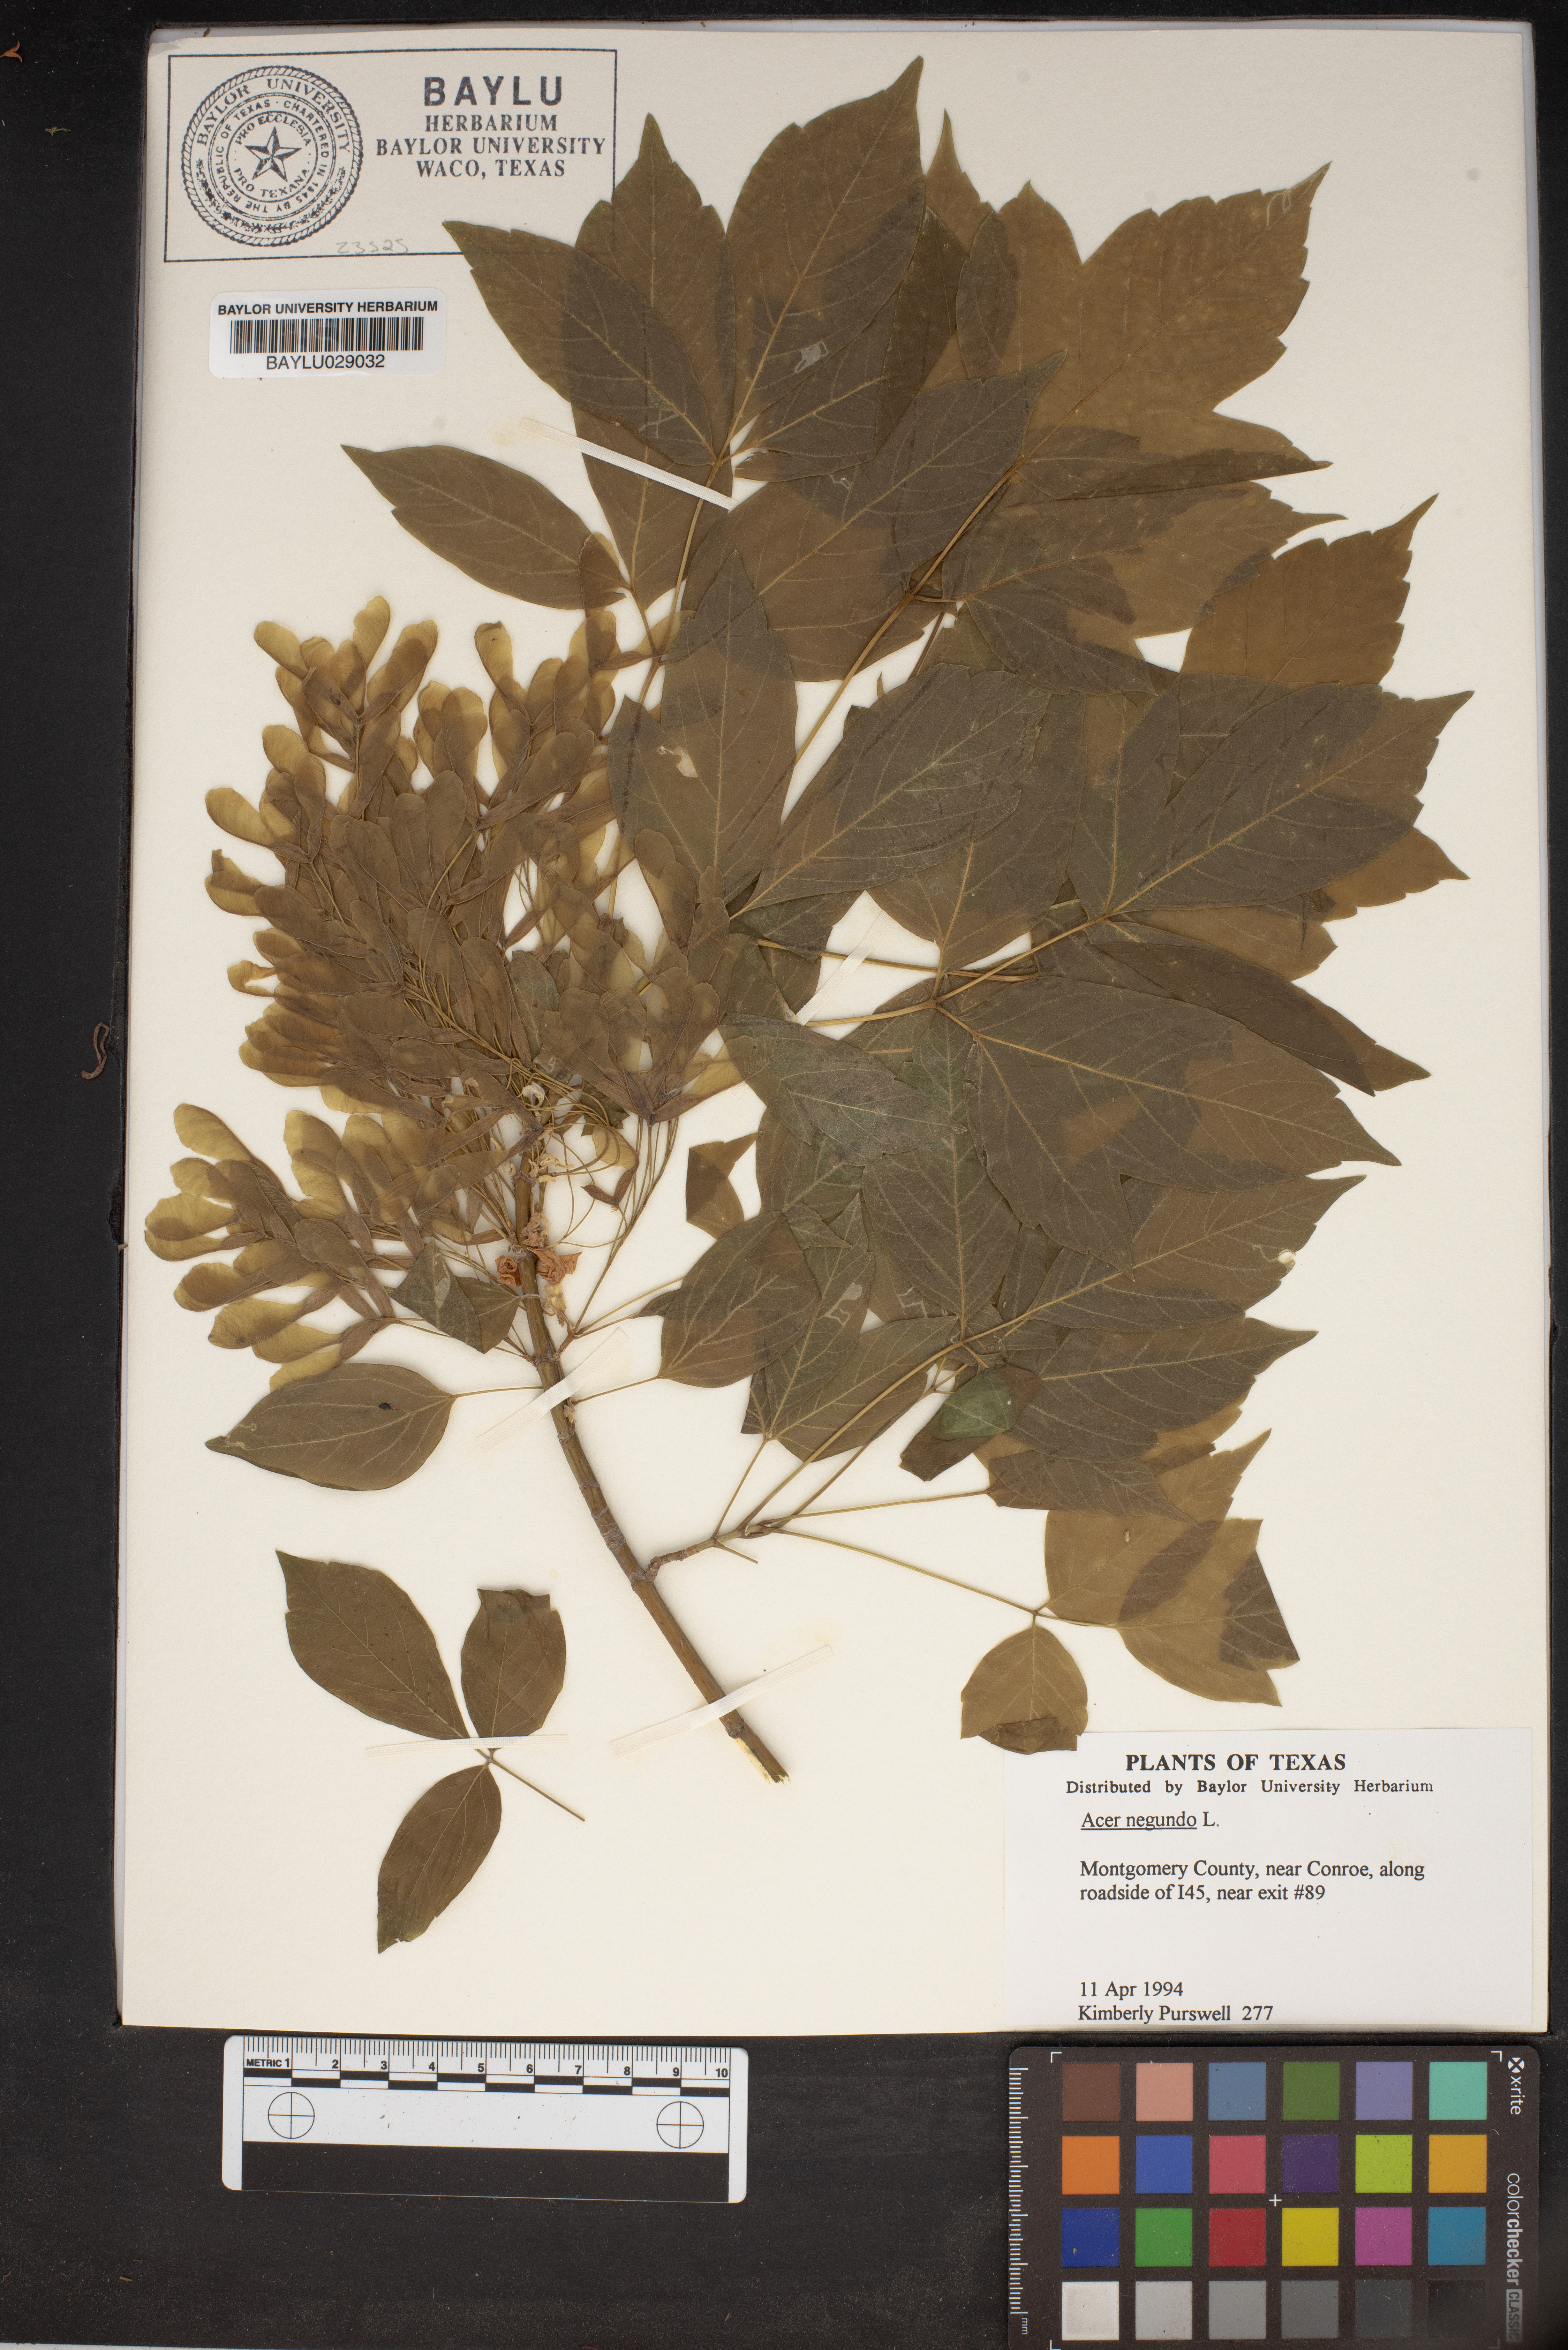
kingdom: Plantae
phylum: Tracheophyta
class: Magnoliopsida
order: Sapindales
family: Sapindaceae
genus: Acer
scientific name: Acer negundo
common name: Ashleaf maple
